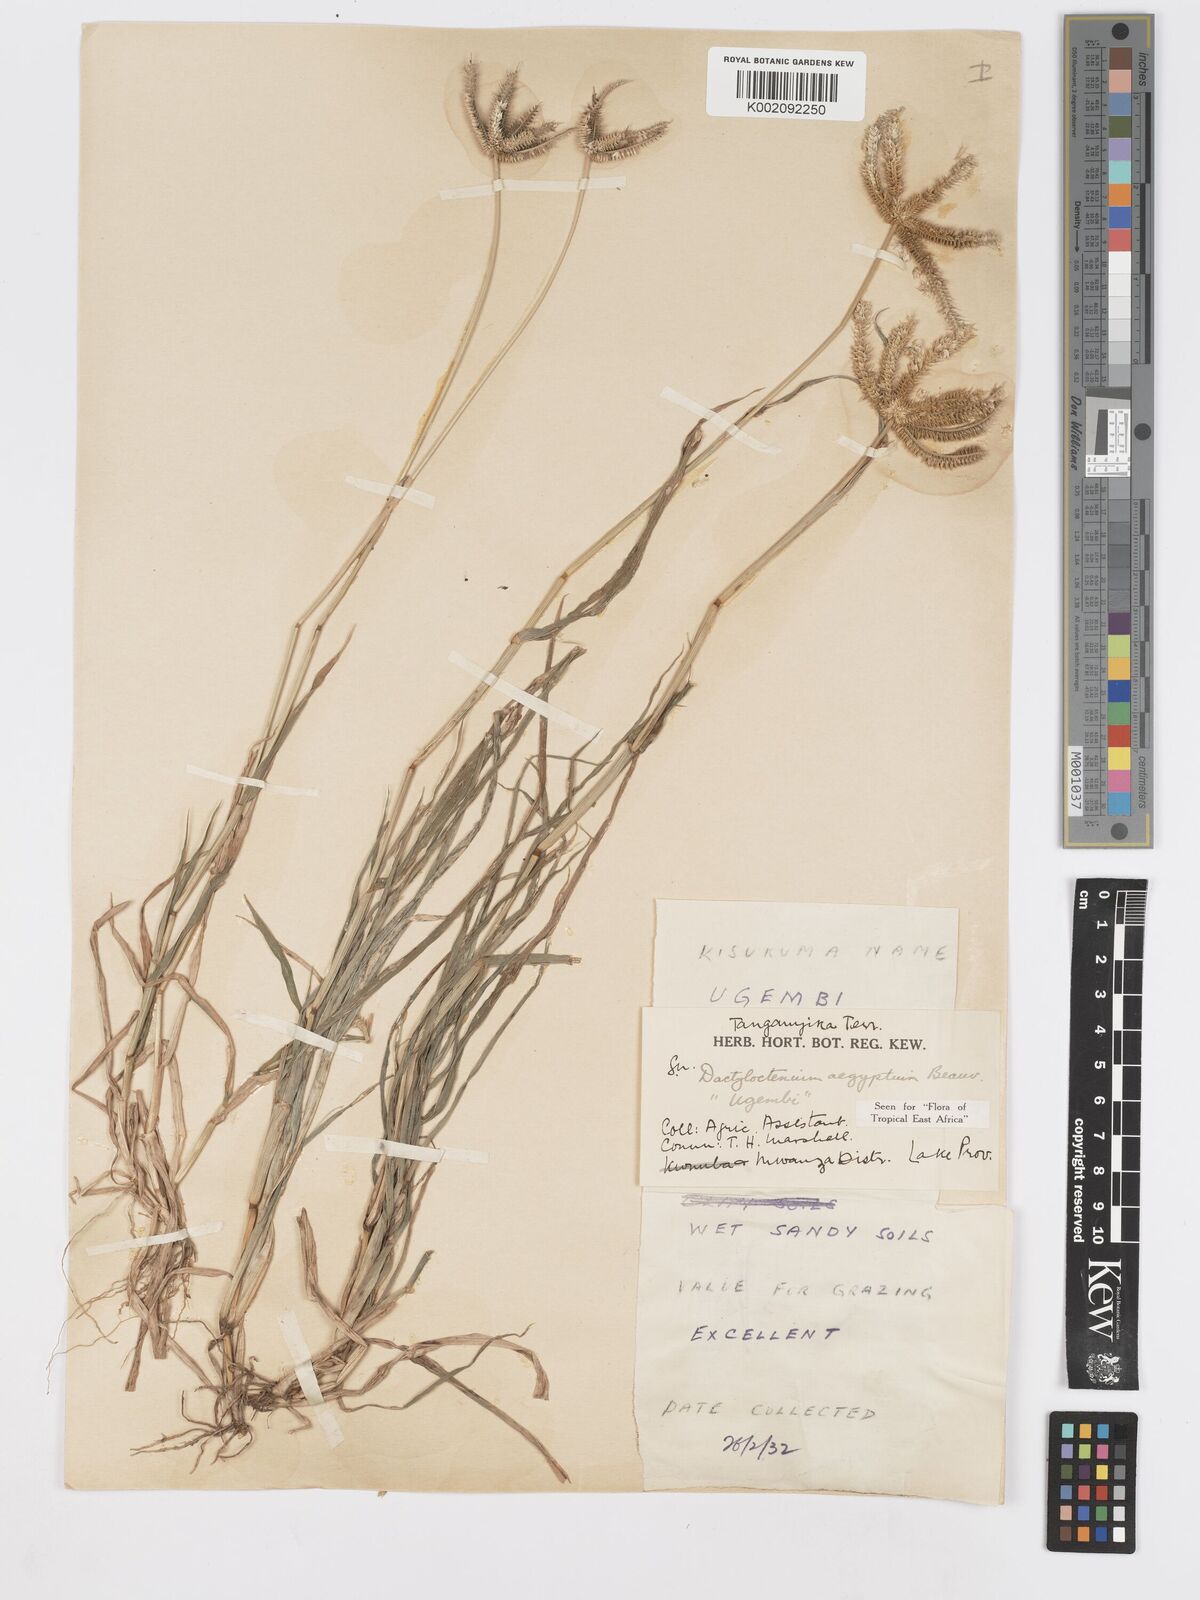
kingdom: Plantae
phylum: Tracheophyta
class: Liliopsida
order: Poales
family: Poaceae
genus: Dactyloctenium
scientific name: Dactyloctenium aegyptium
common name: Egyptian grass
